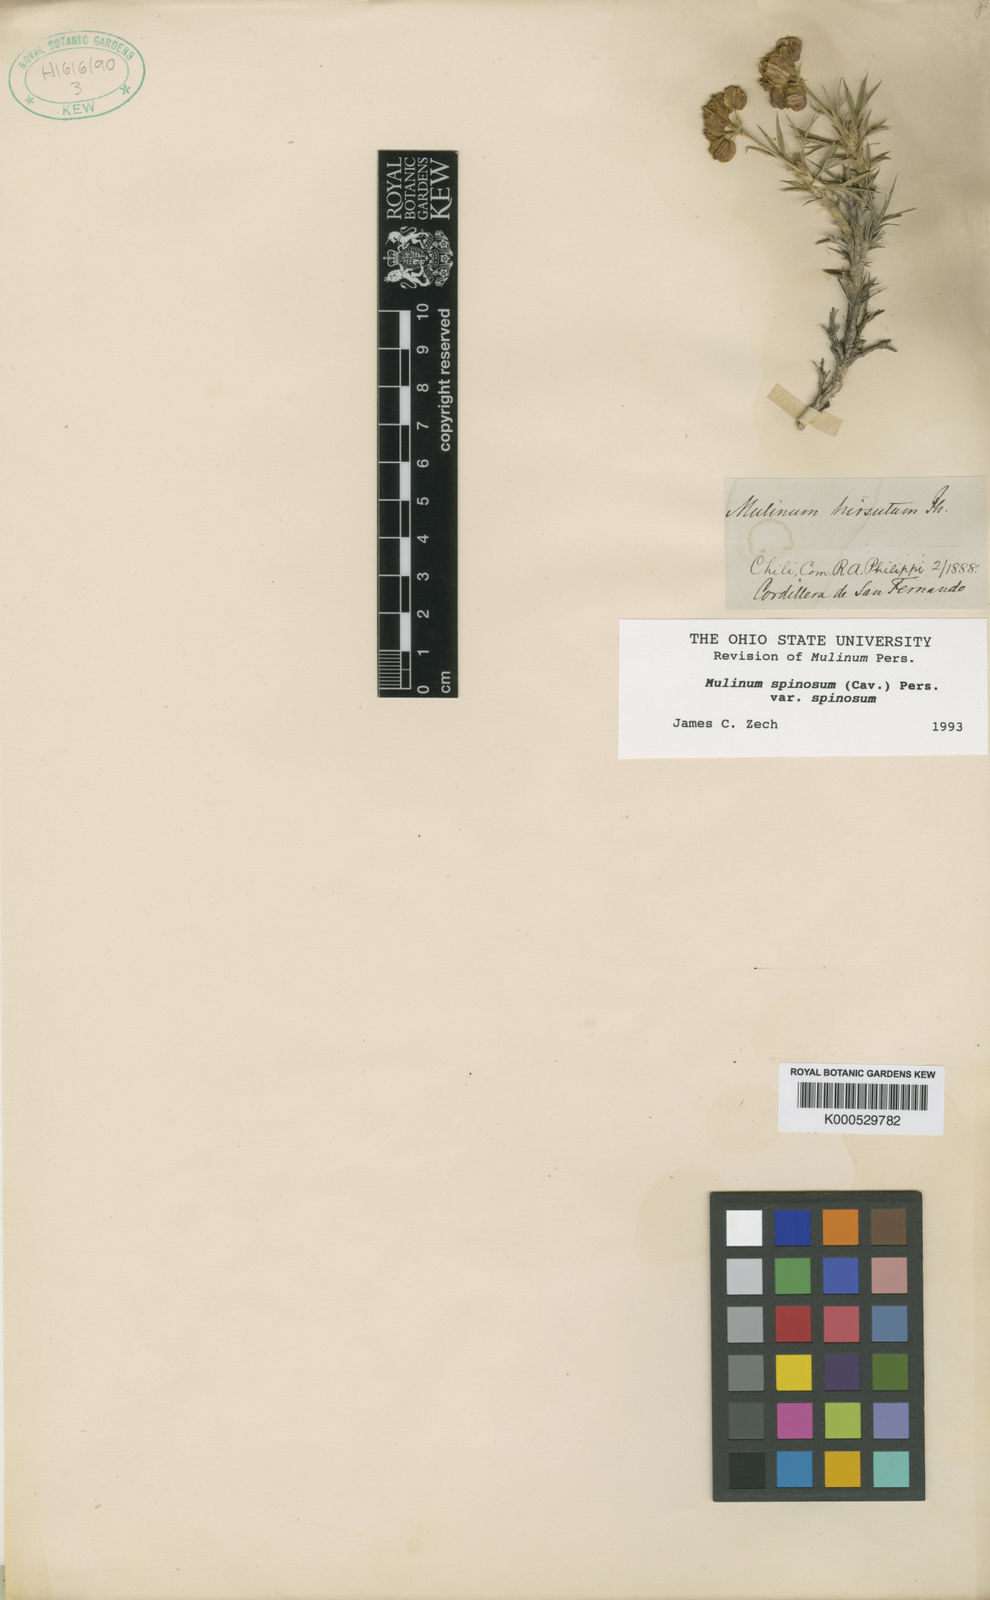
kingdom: Plantae
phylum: Tracheophyta
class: Magnoliopsida
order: Apiales
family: Apiaceae
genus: Azorella
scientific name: Azorella prolifera
